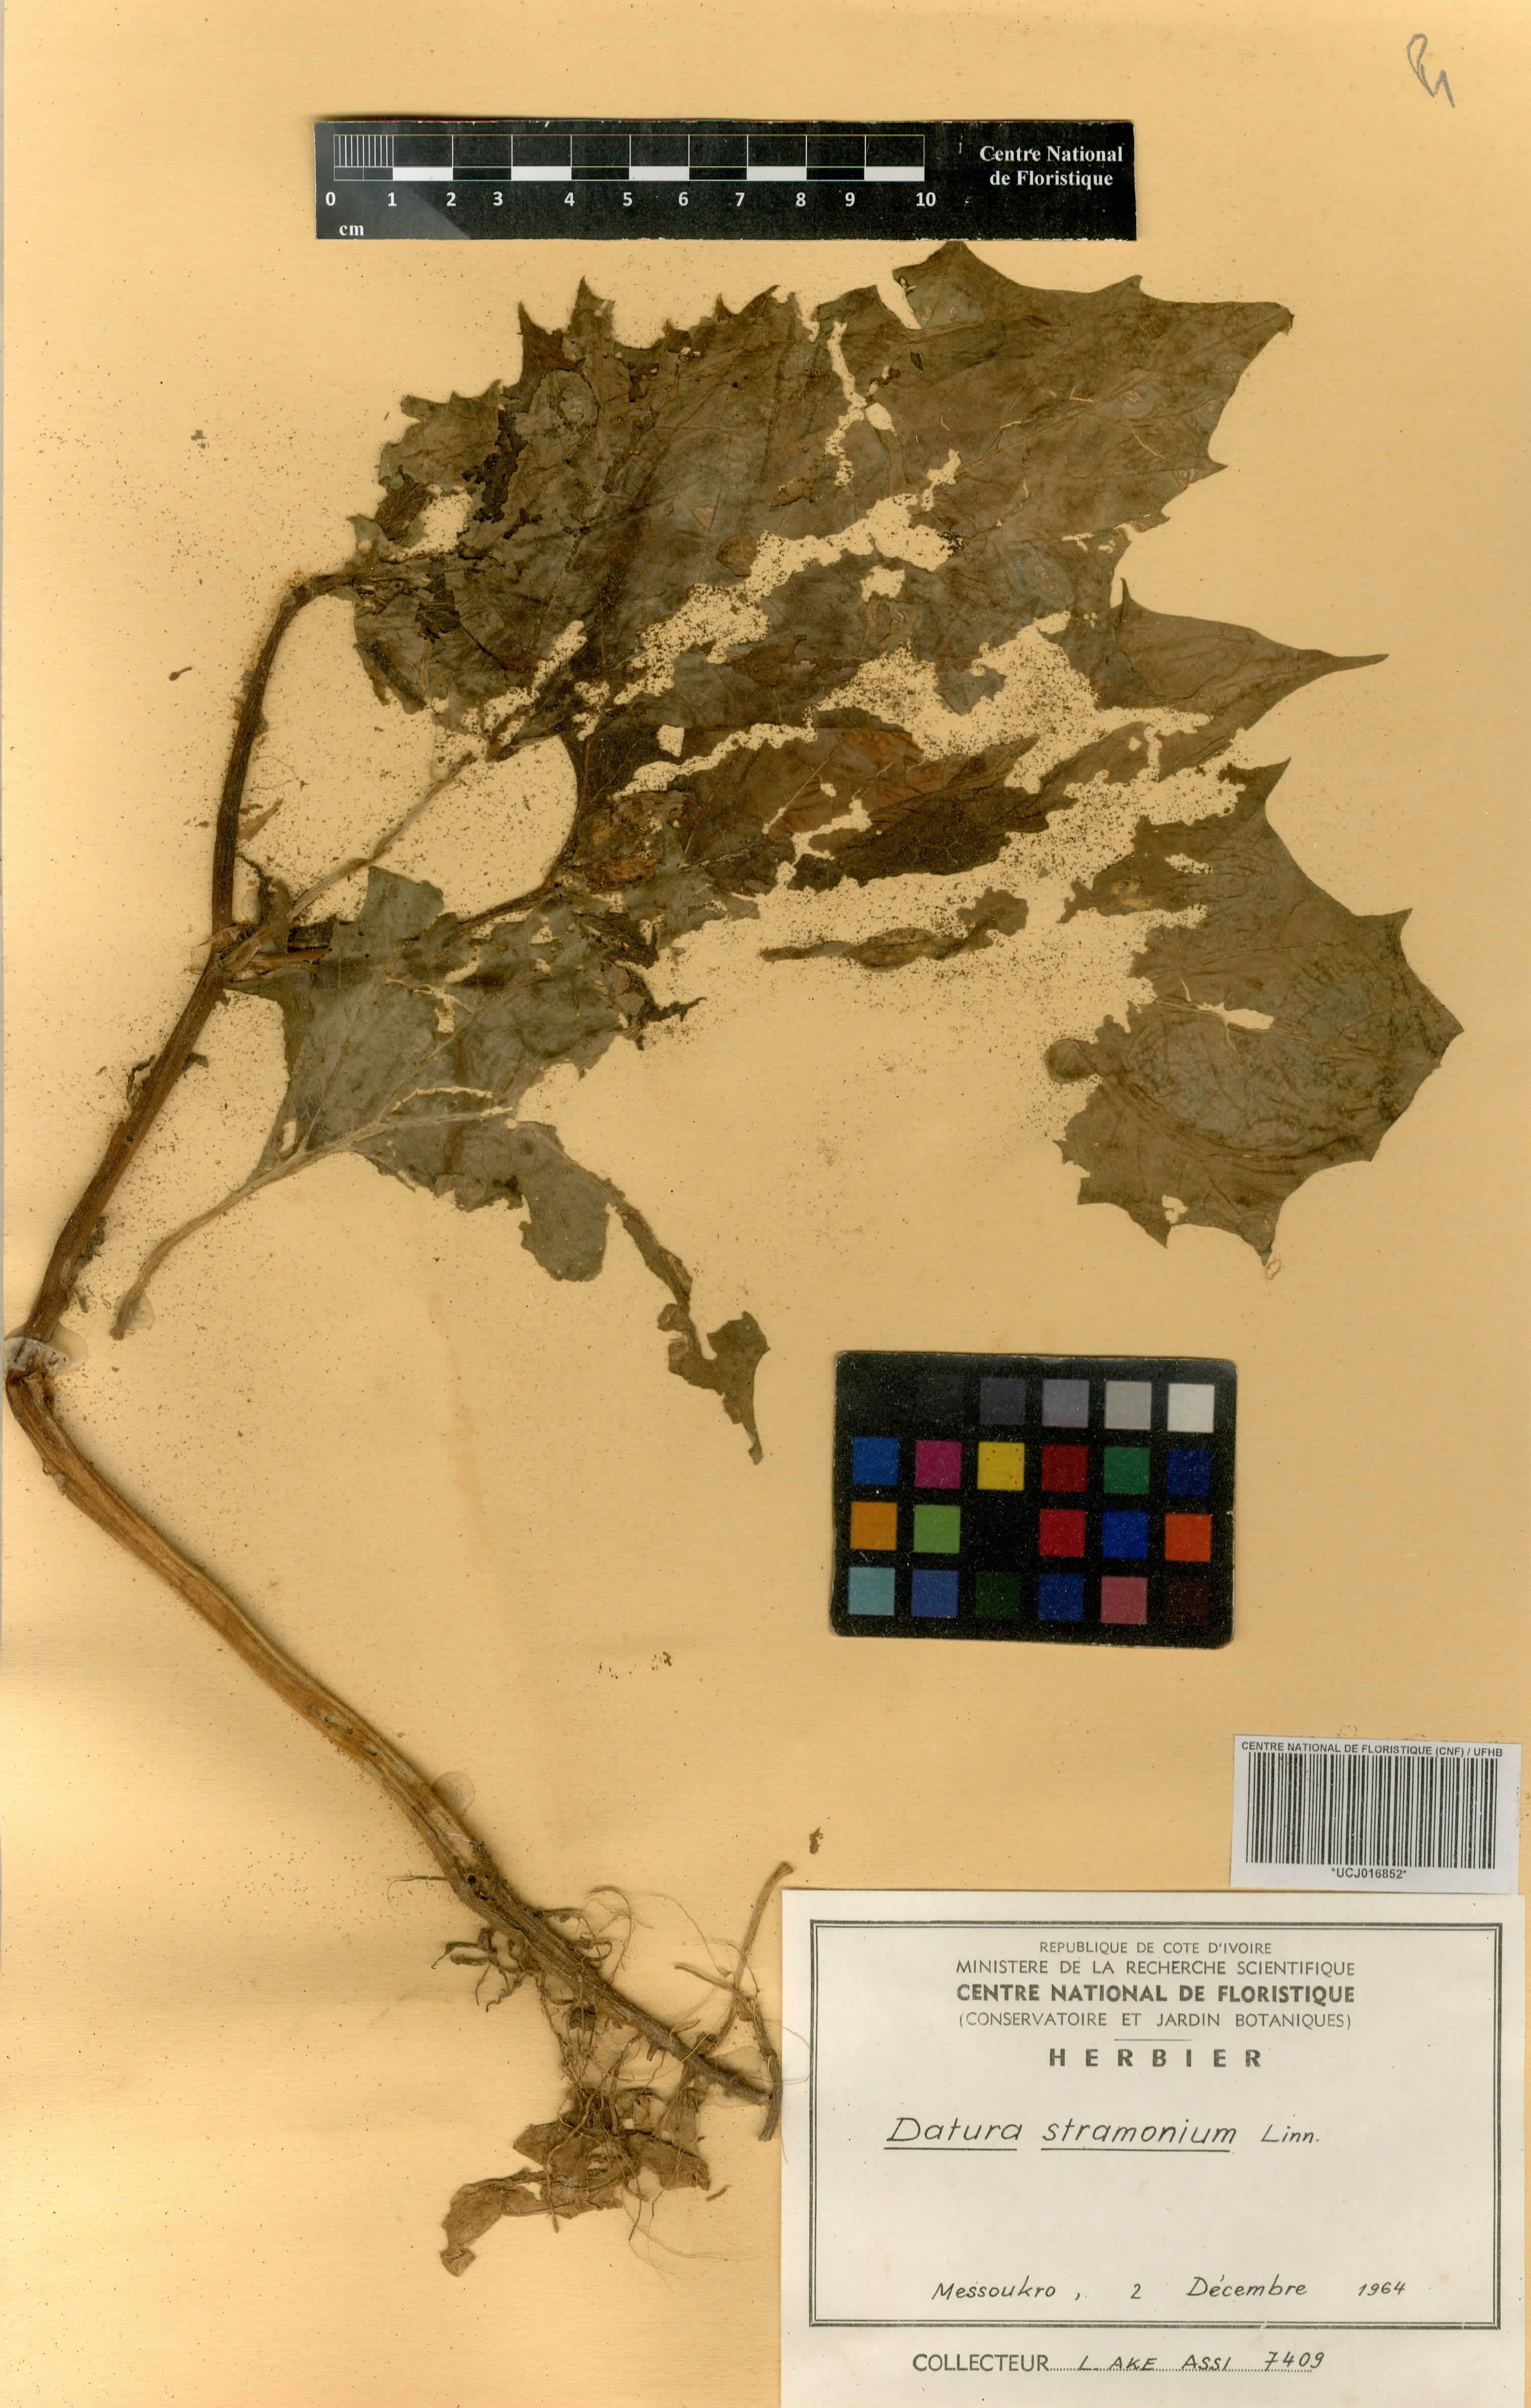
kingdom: Plantae
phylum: Tracheophyta
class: Magnoliopsida
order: Solanales
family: Solanaceae
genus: Datura
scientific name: Datura stramonium
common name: Thorn-apple
